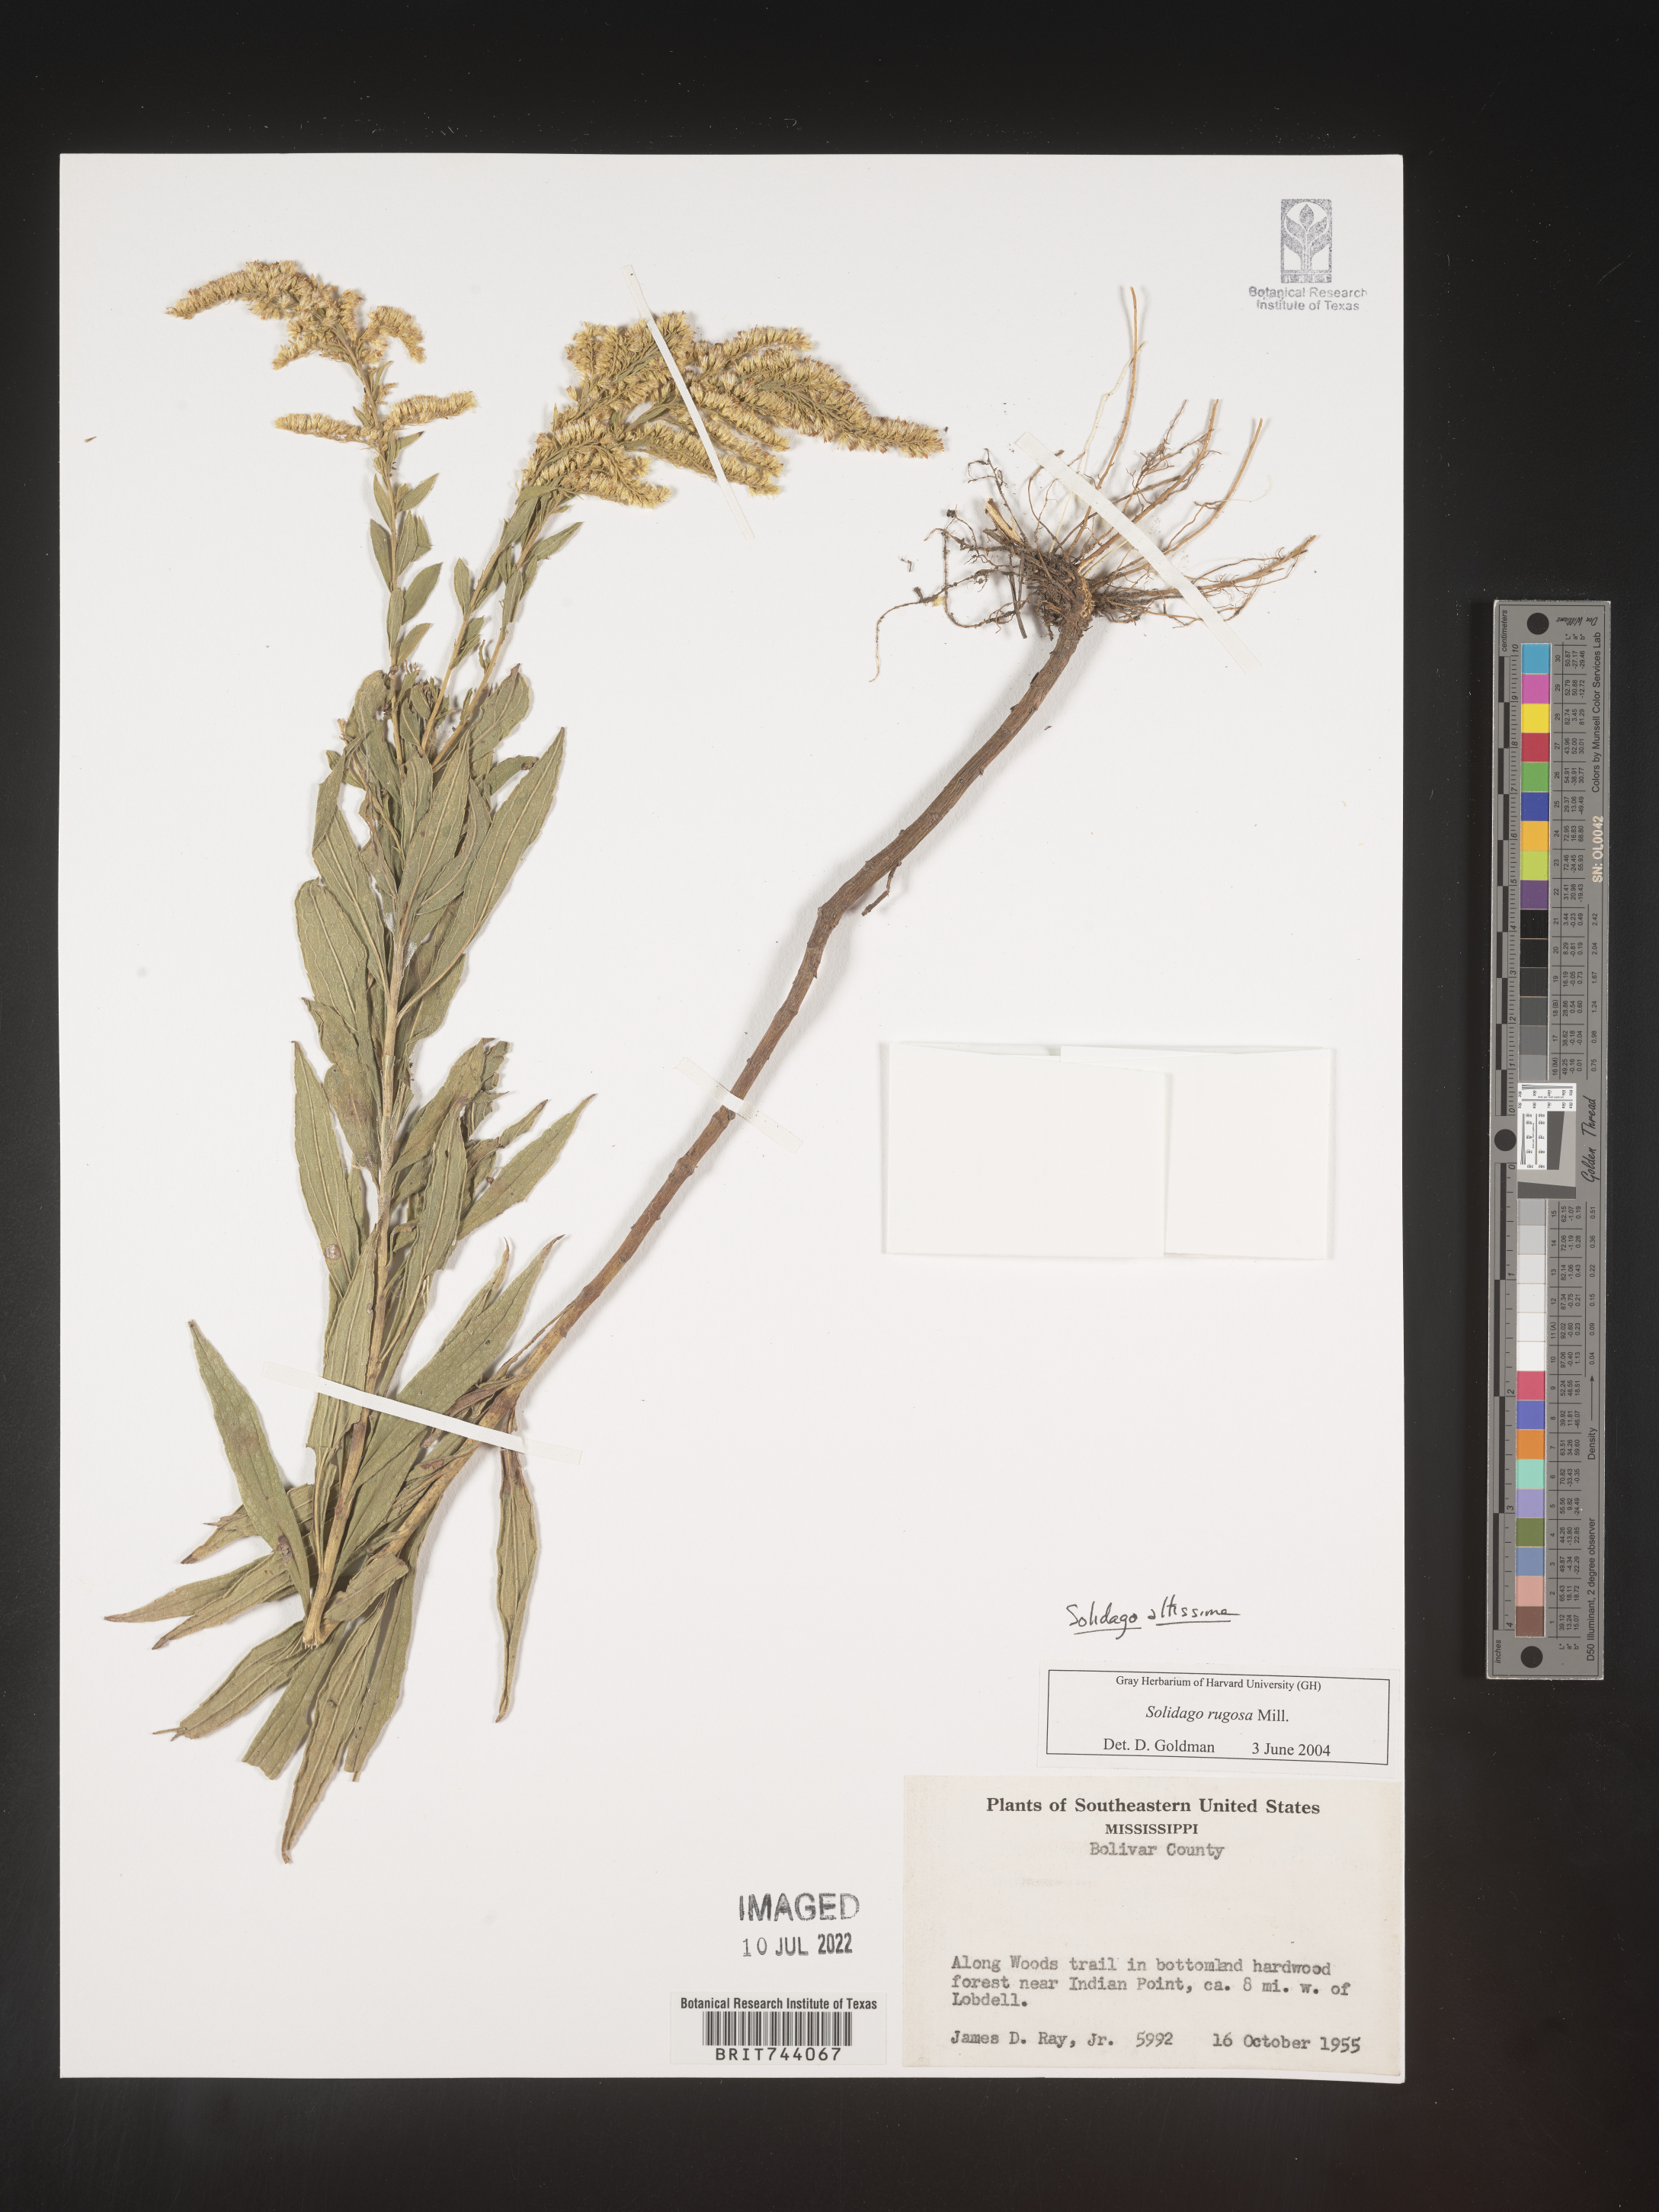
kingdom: Plantae
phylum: Tracheophyta
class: Magnoliopsida
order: Asterales
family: Asteraceae
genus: Solidago
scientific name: Solidago altissima
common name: Late goldenrod
